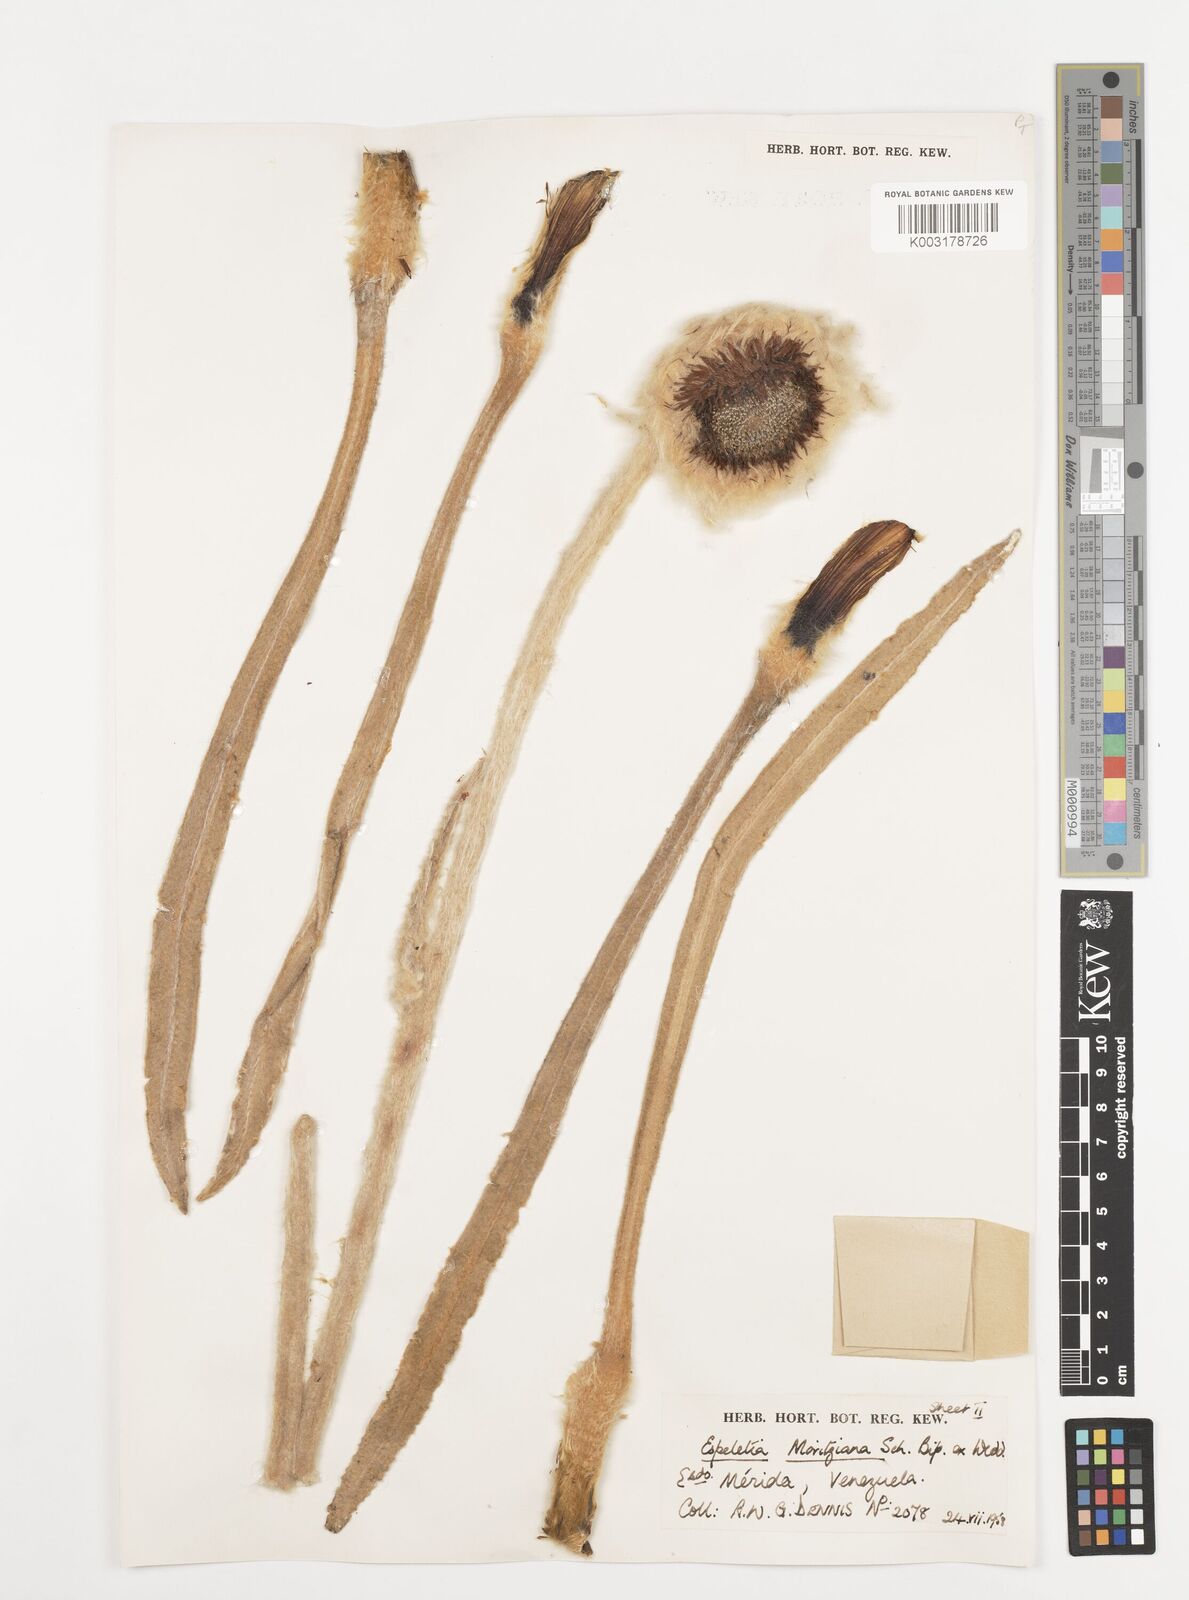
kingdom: Plantae
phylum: Tracheophyta
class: Magnoliopsida
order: Asterales
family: Asteraceae
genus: Espeletia
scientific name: Espeletia moritziana
